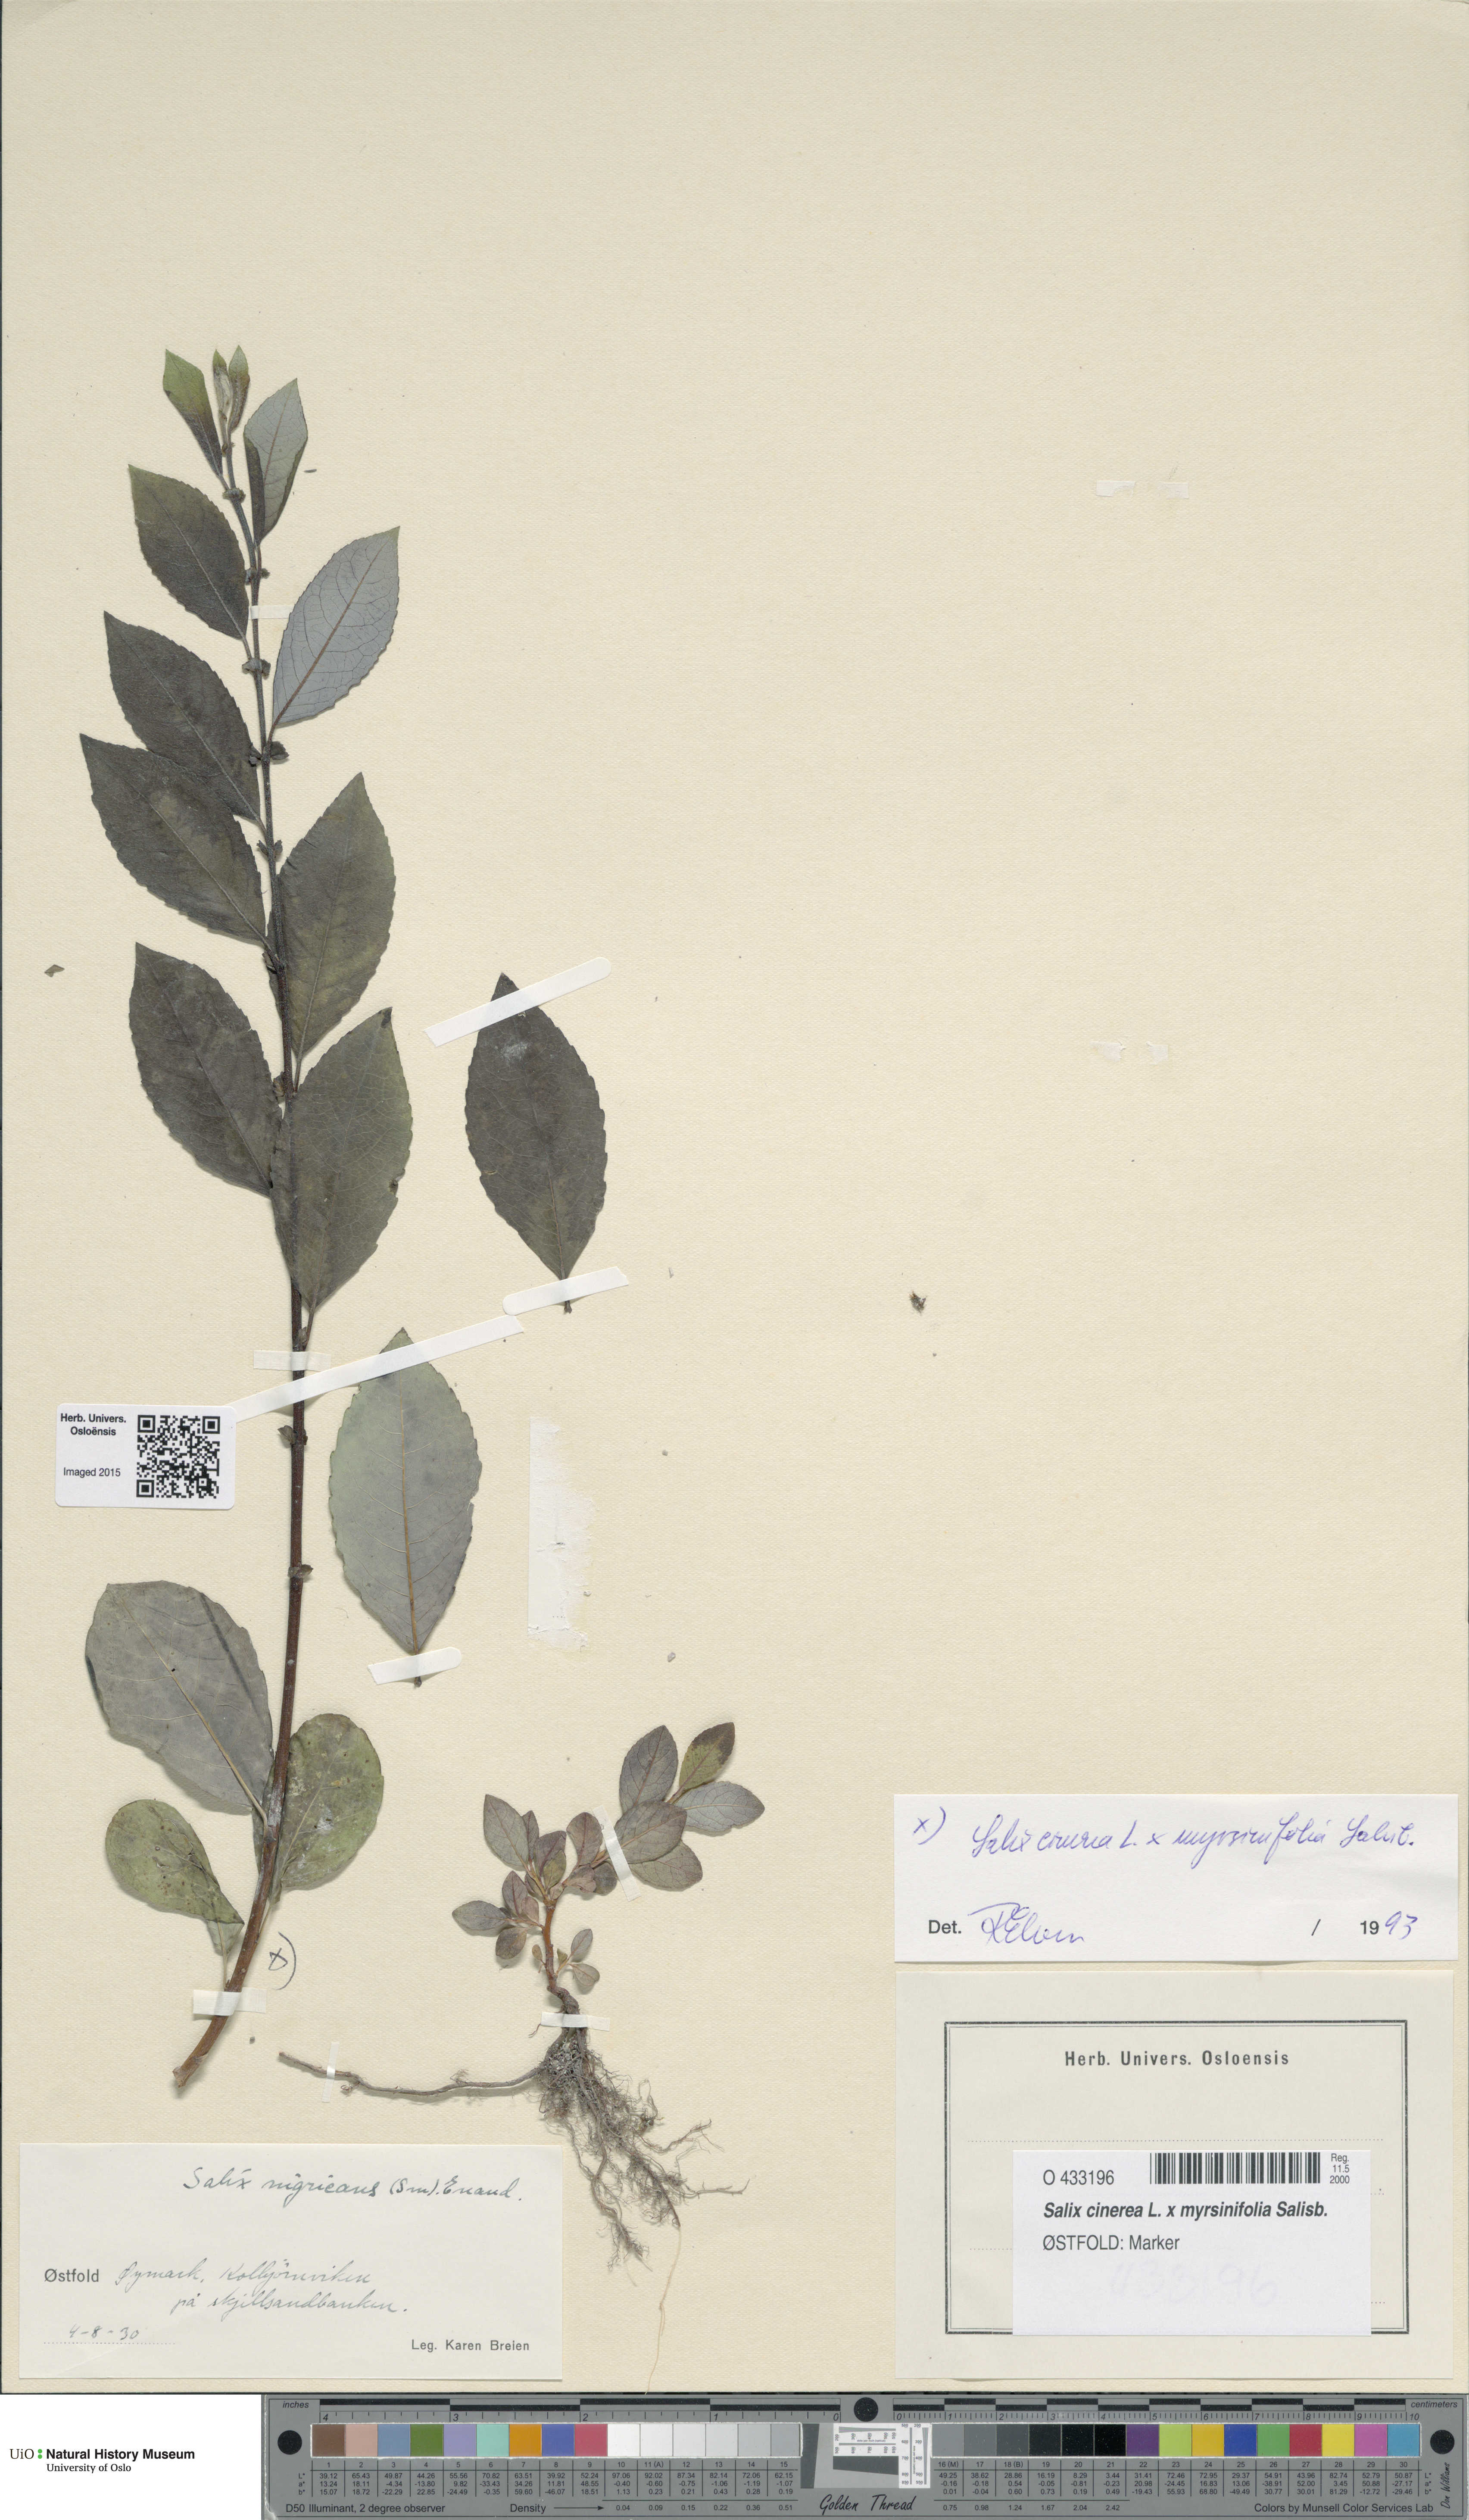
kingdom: Plantae
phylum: Tracheophyta
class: Magnoliopsida
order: Malpighiales
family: Salicaceae
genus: Salix
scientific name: Salix
